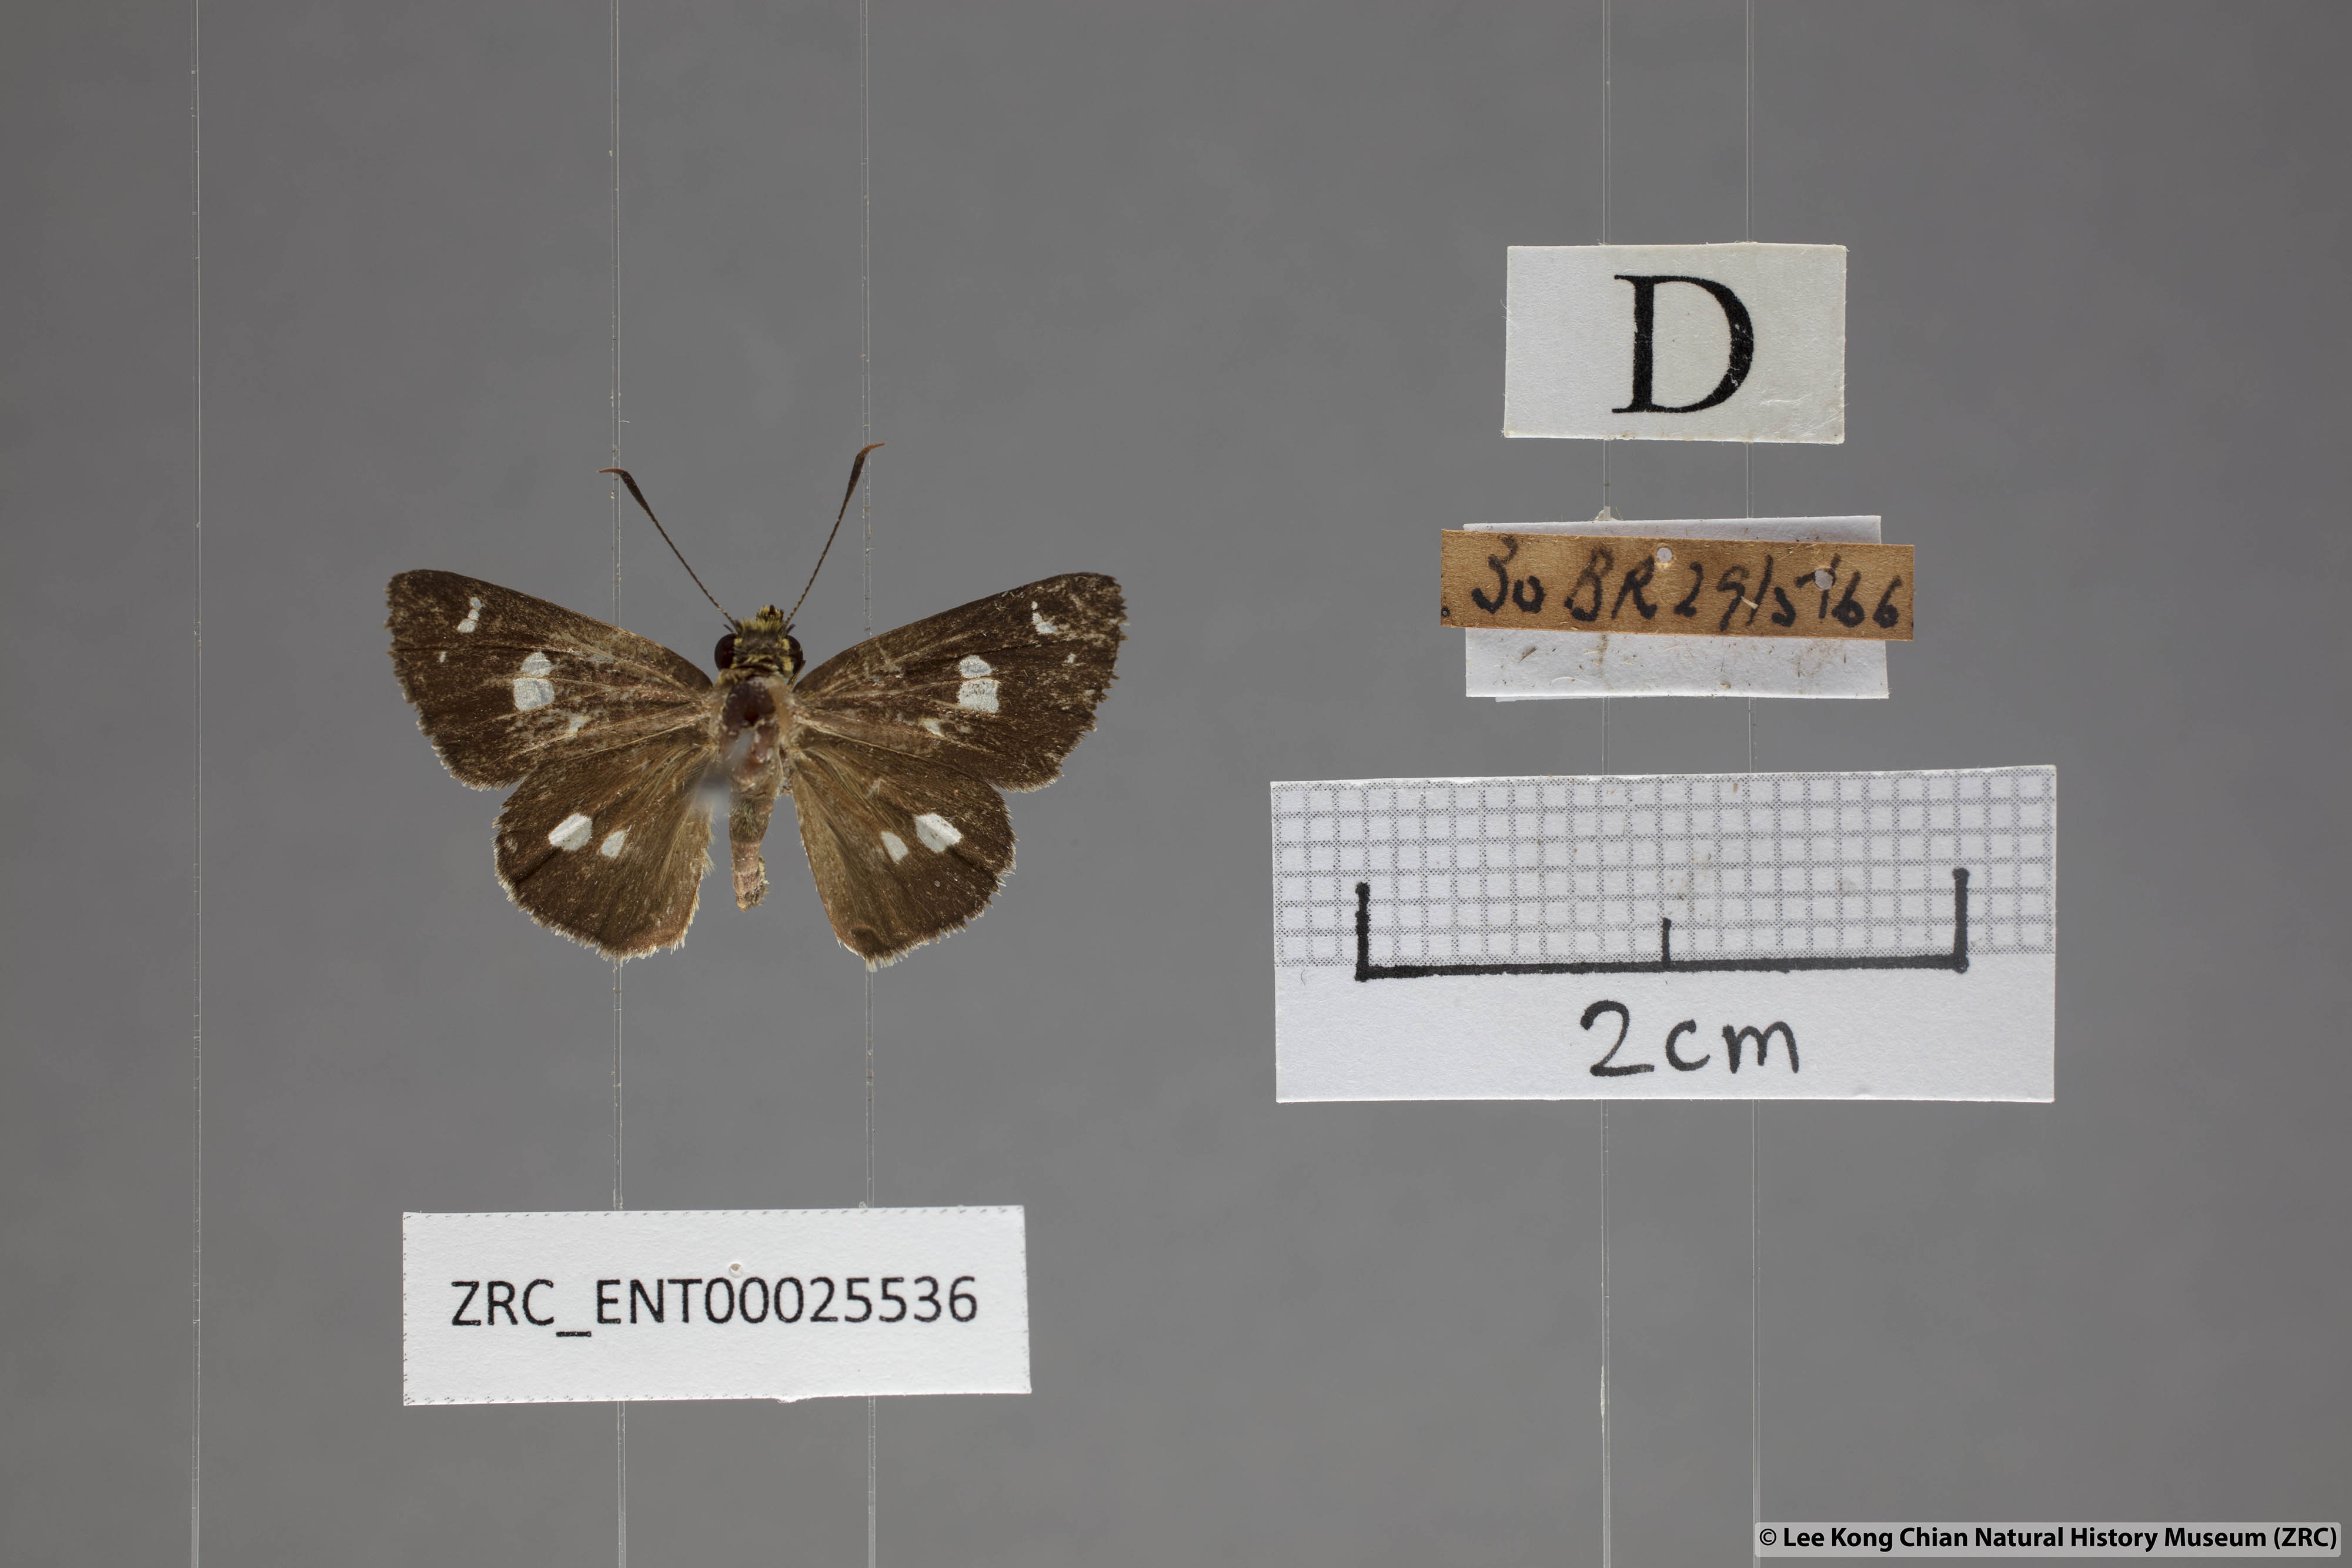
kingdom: Animalia
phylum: Arthropoda
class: Insecta
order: Lepidoptera
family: Hesperiidae
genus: Scobura
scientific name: Scobura isota
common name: Swinhoe's forest bob
